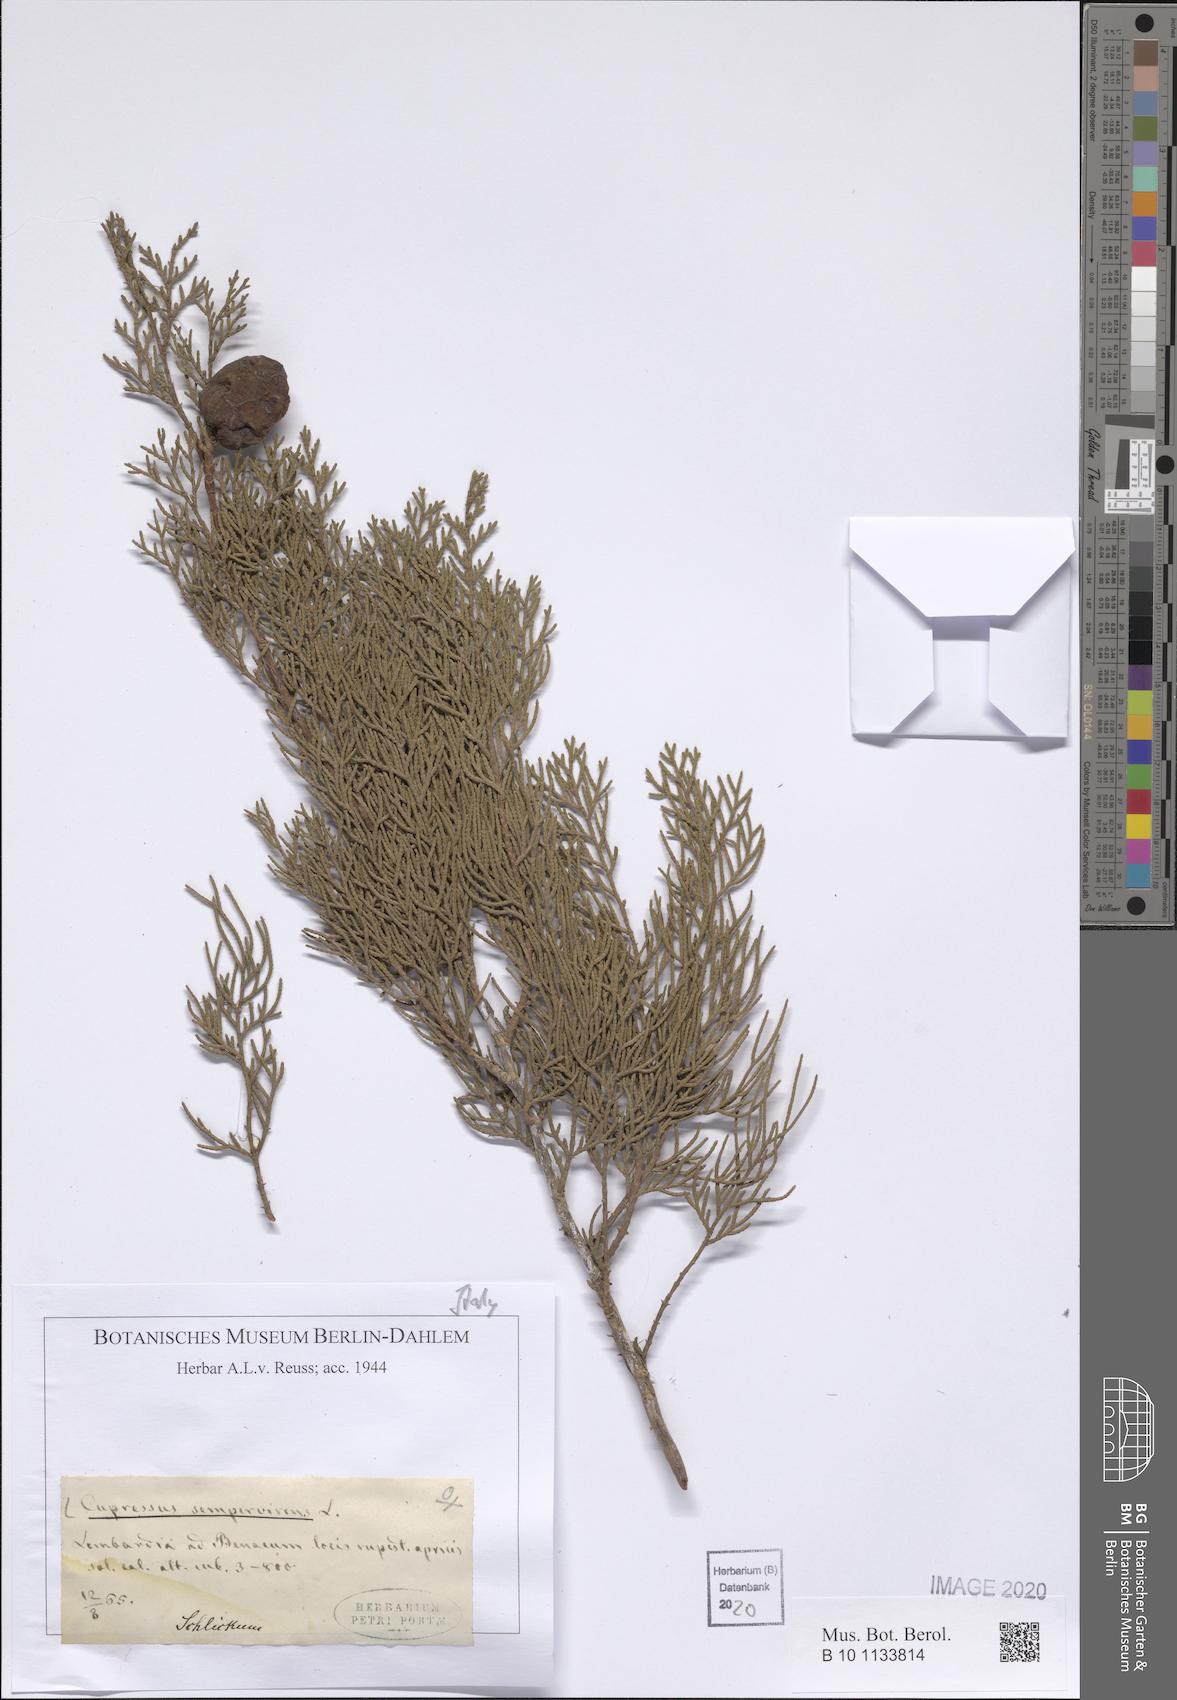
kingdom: Plantae
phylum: Tracheophyta
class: Pinopsida
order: Pinales
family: Cupressaceae
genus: Cupressus
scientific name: Cupressus sempervirens
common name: Italian cypress
